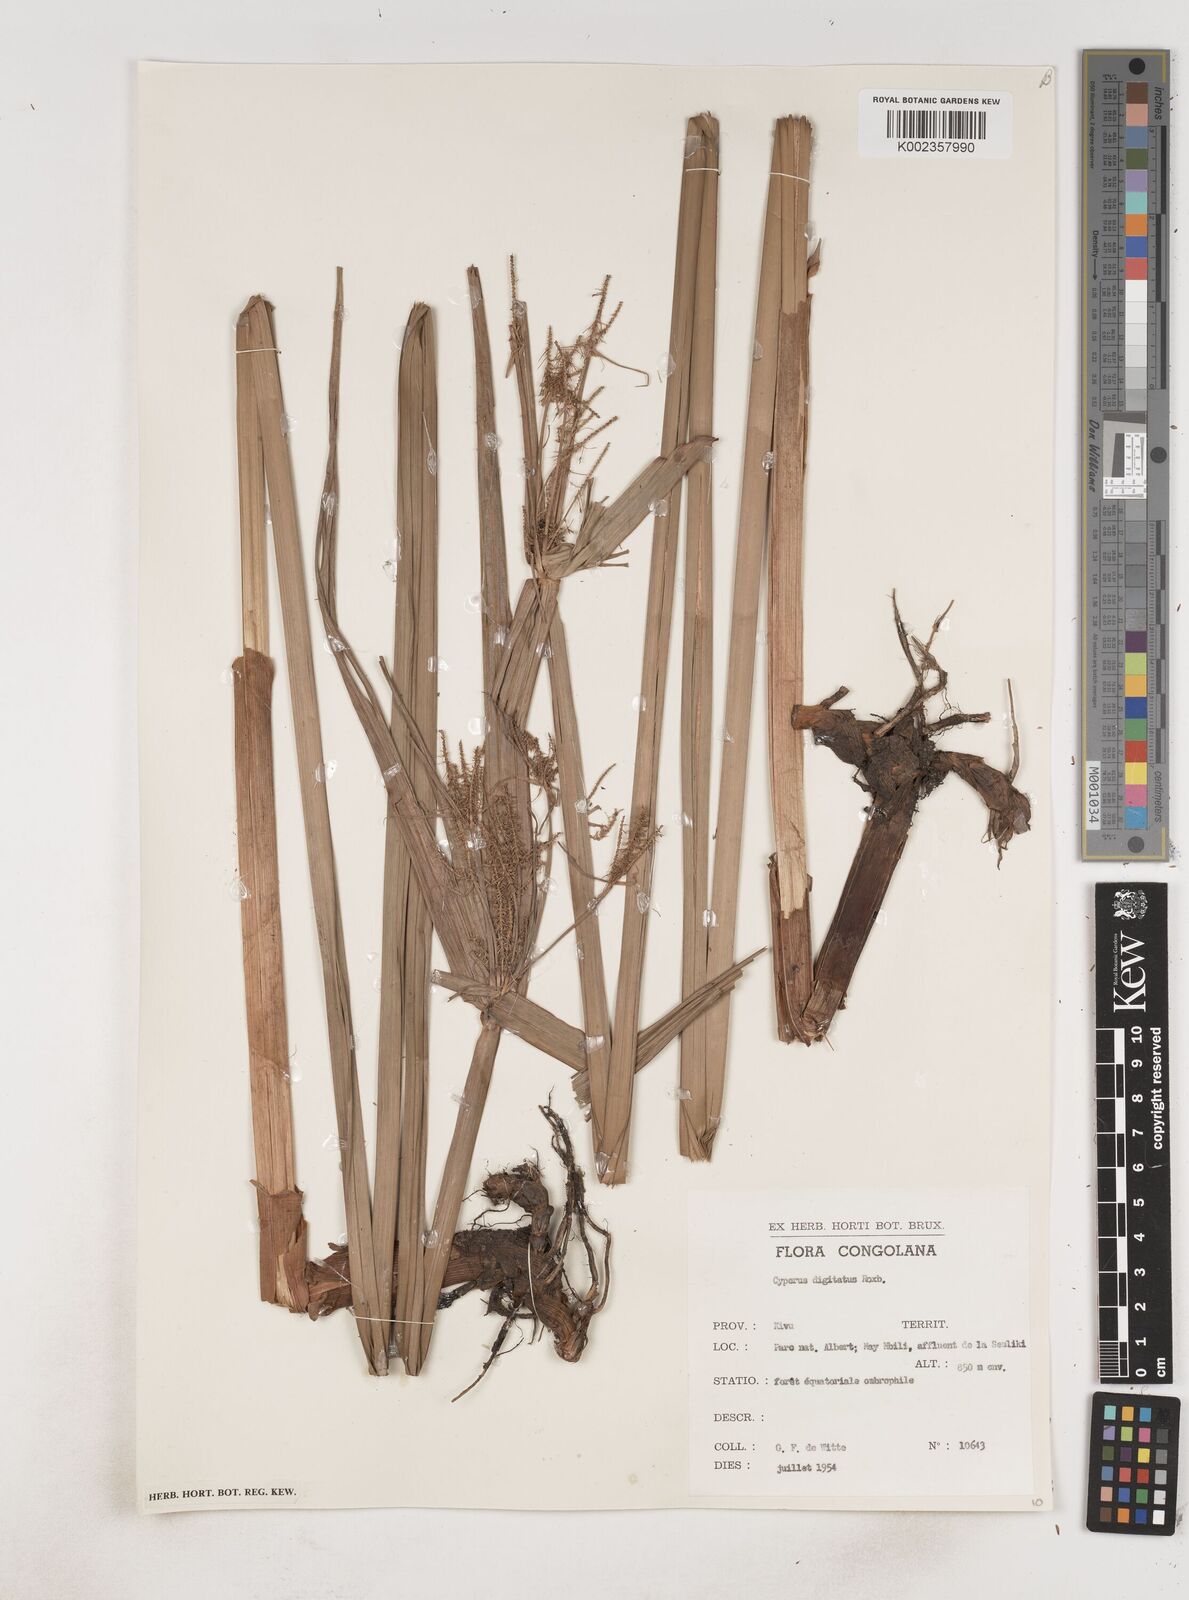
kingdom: Plantae
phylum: Tracheophyta
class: Liliopsida
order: Poales
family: Cyperaceae
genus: Cyperus
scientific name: Cyperus digitatus
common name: Finger flatsedge
